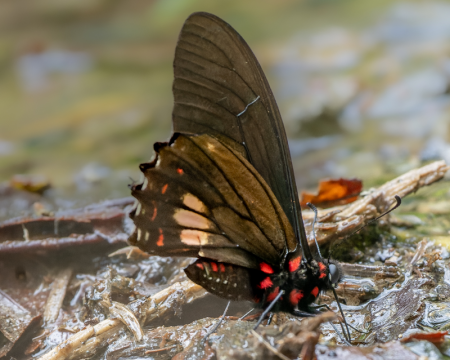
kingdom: Animalia
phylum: Arthropoda
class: Insecta
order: Lepidoptera
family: Papilionidae
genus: Mimoides
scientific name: Mimoides euryleon
